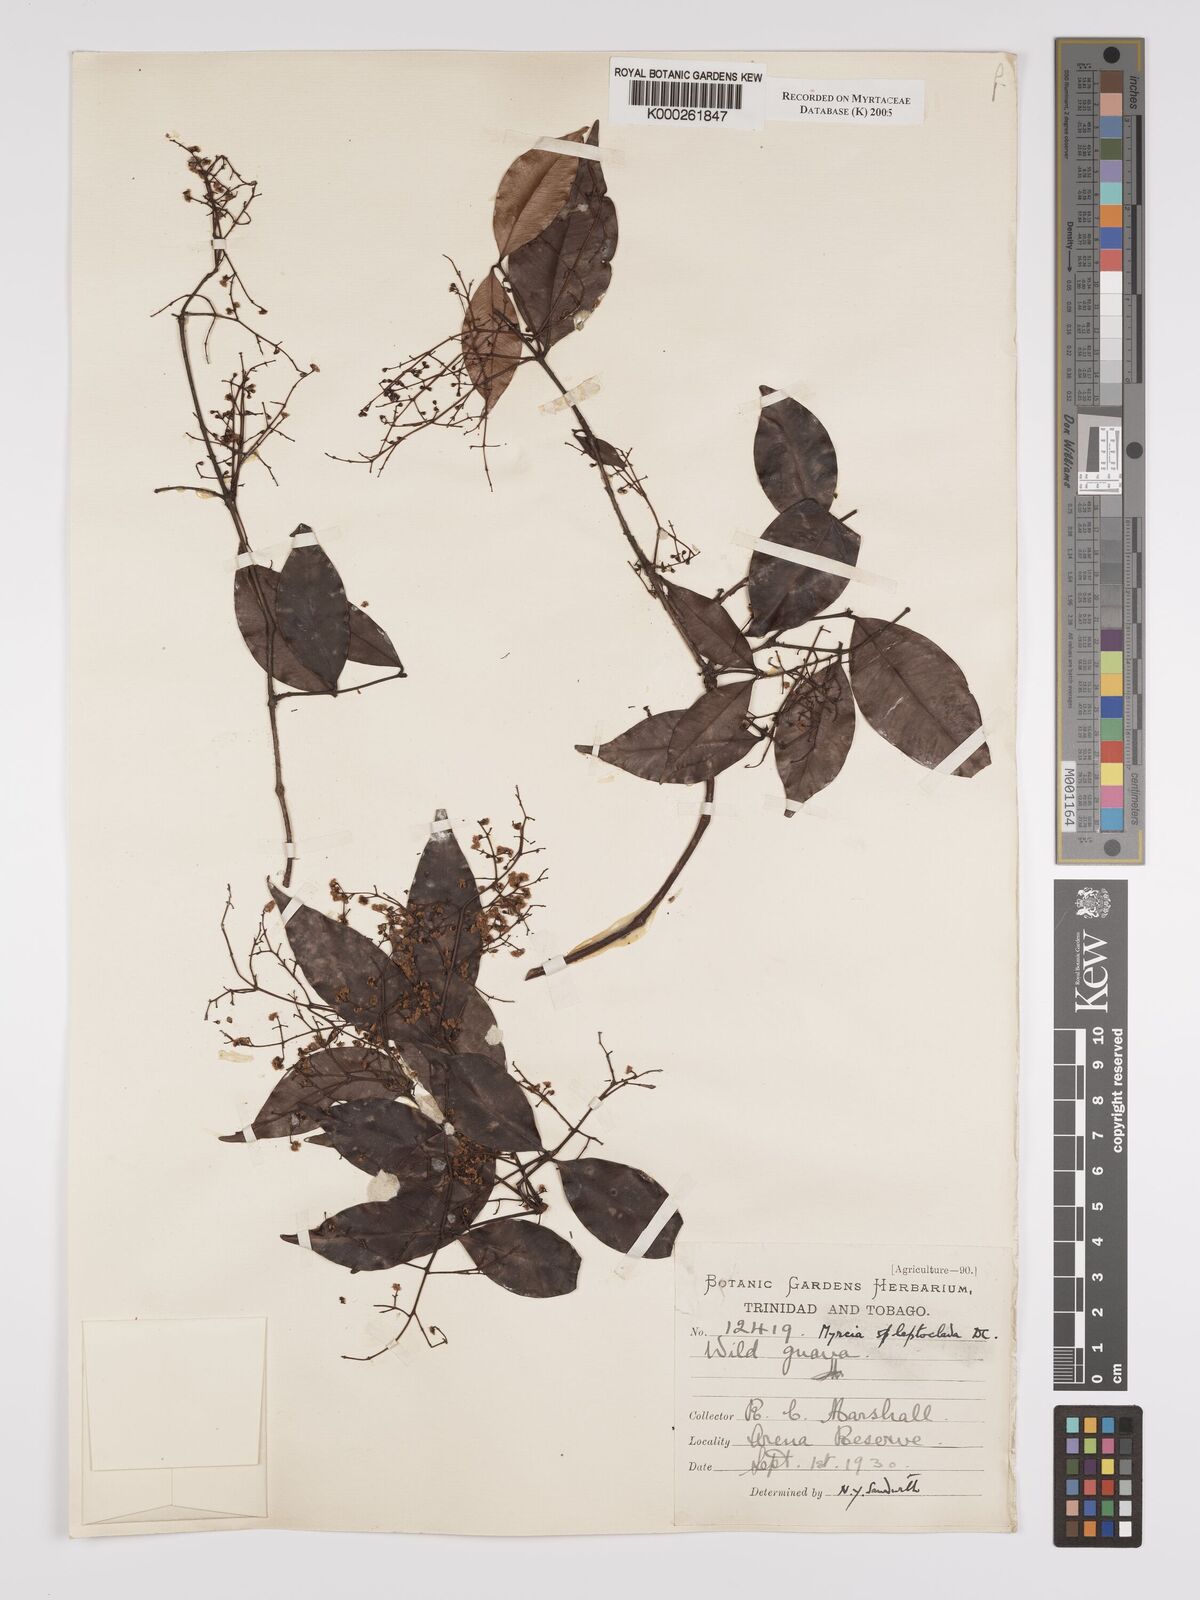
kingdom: Plantae
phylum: Tracheophyta
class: Magnoliopsida
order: Myrtales
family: Myrtaceae
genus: Myrcia
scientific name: Myrcia amazonica
